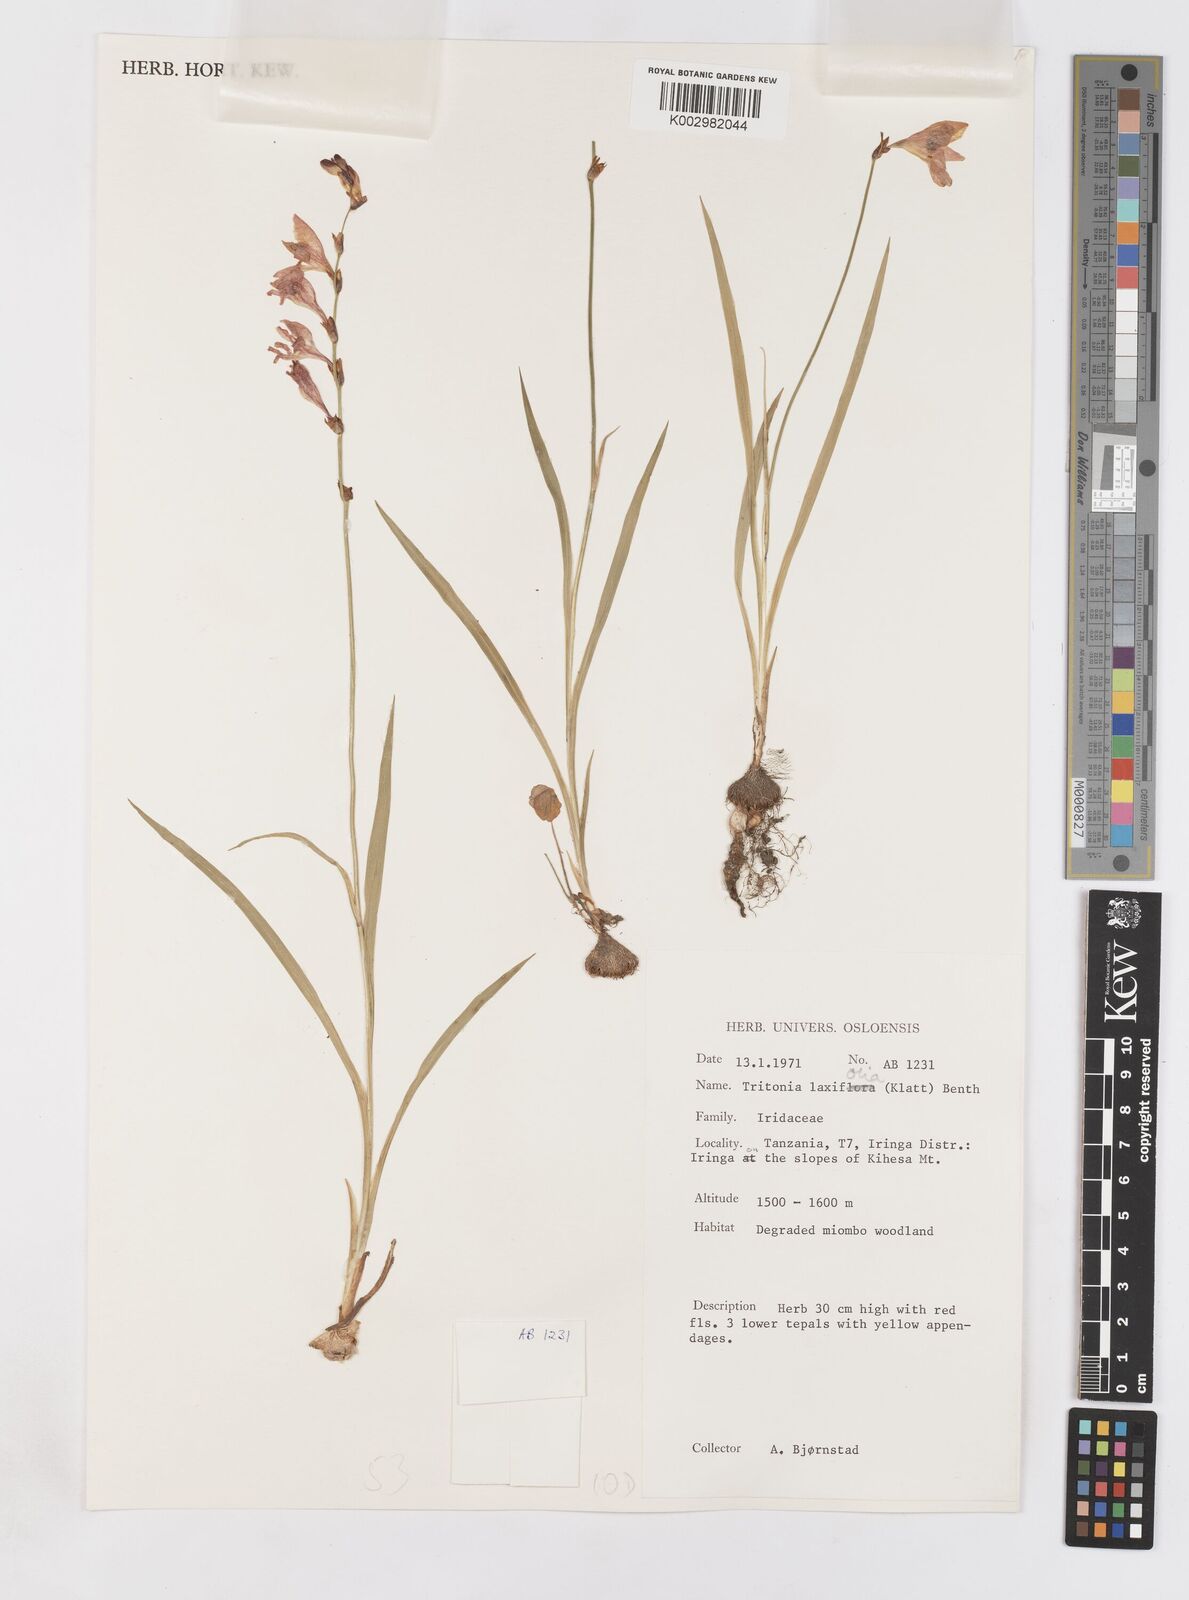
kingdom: Plantae
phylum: Tracheophyta
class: Liliopsida
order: Asparagales
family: Iridaceae
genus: Tritonia
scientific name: Tritonia laxifolia
